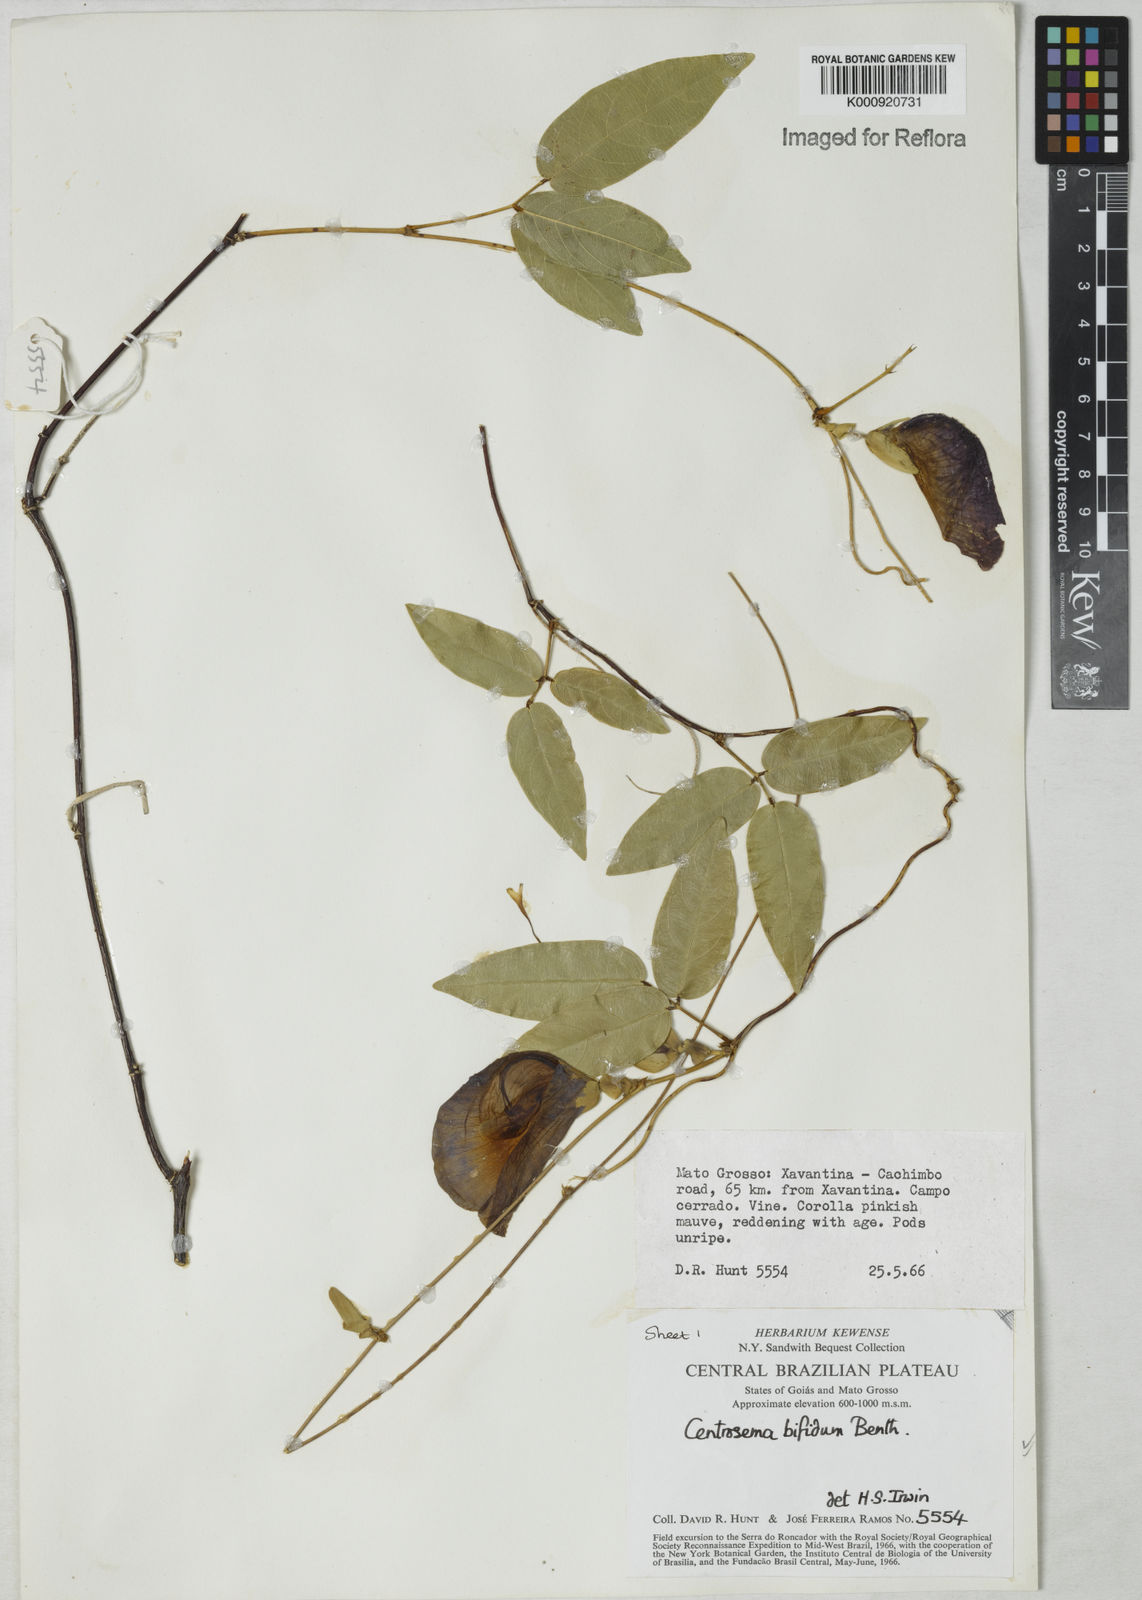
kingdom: Plantae
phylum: Tracheophyta
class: Magnoliopsida
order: Fabales
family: Fabaceae
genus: Centrosema
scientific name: Centrosema bifidum
